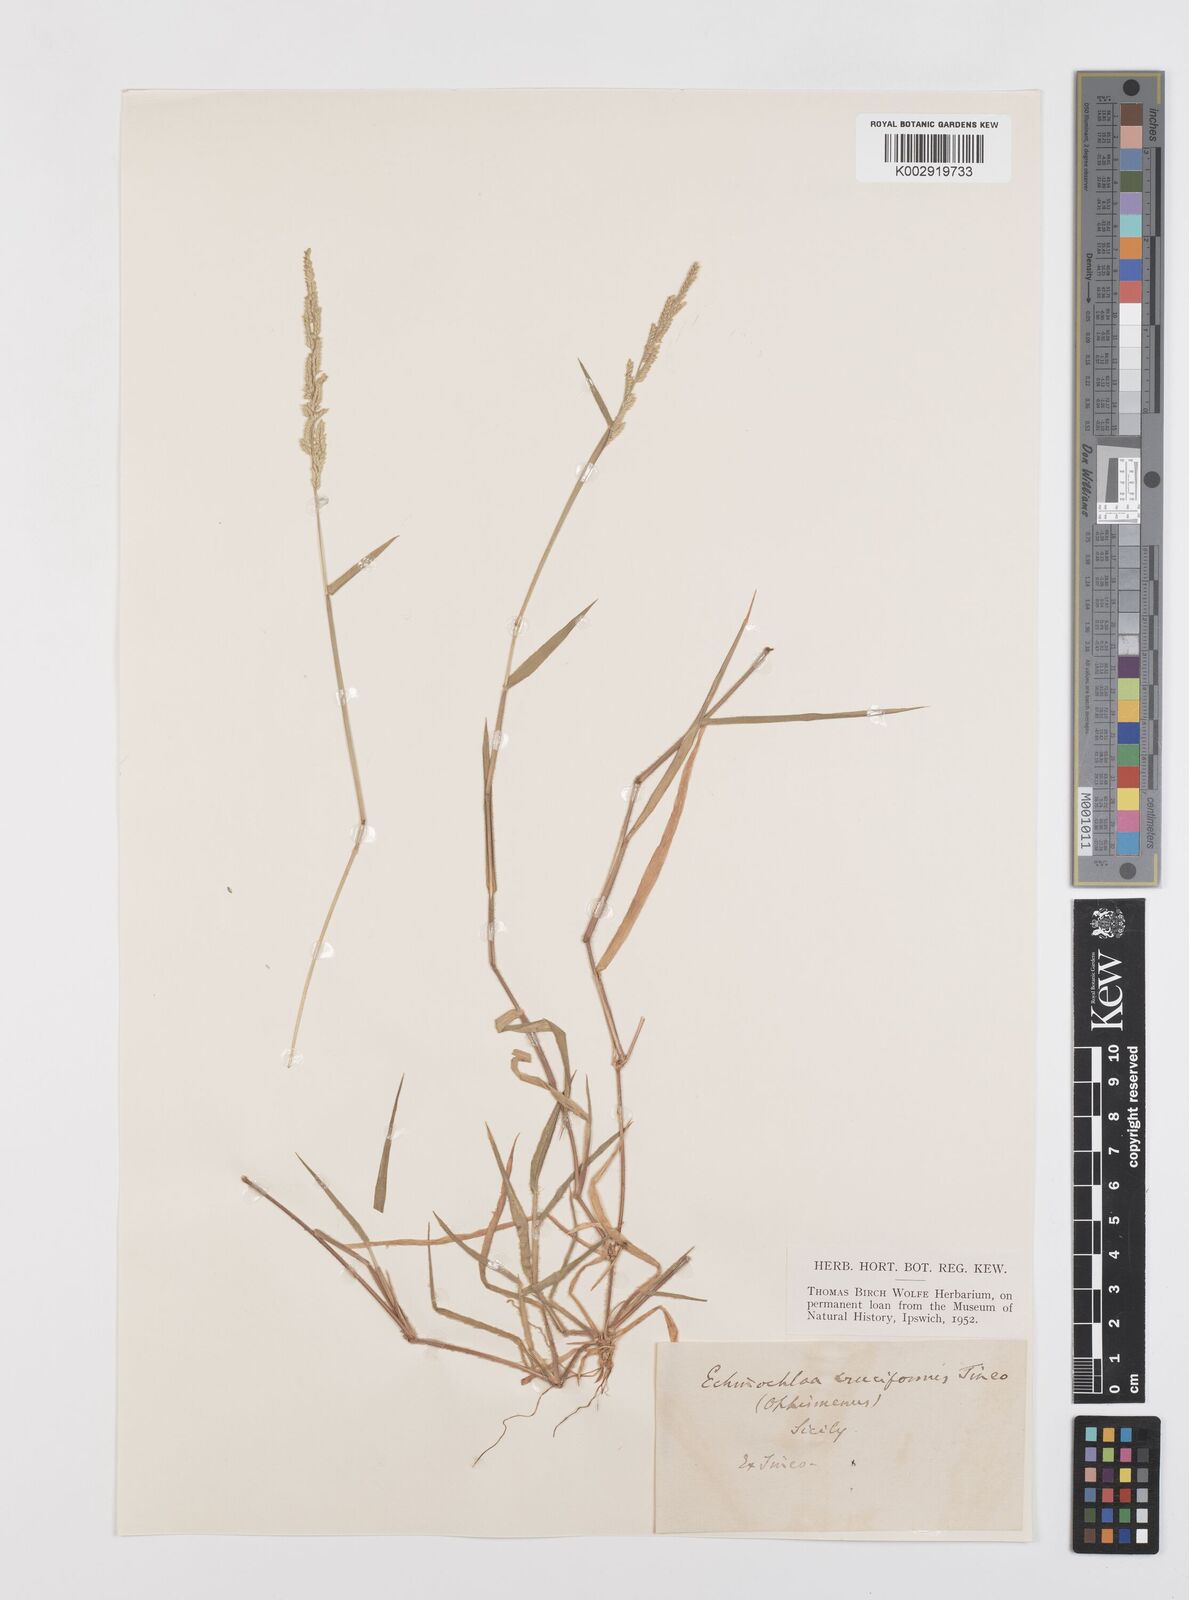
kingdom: Plantae
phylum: Tracheophyta
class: Liliopsida
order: Poales
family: Poaceae
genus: Moorochloa
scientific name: Moorochloa eruciformis
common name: Sweet signalgrass
